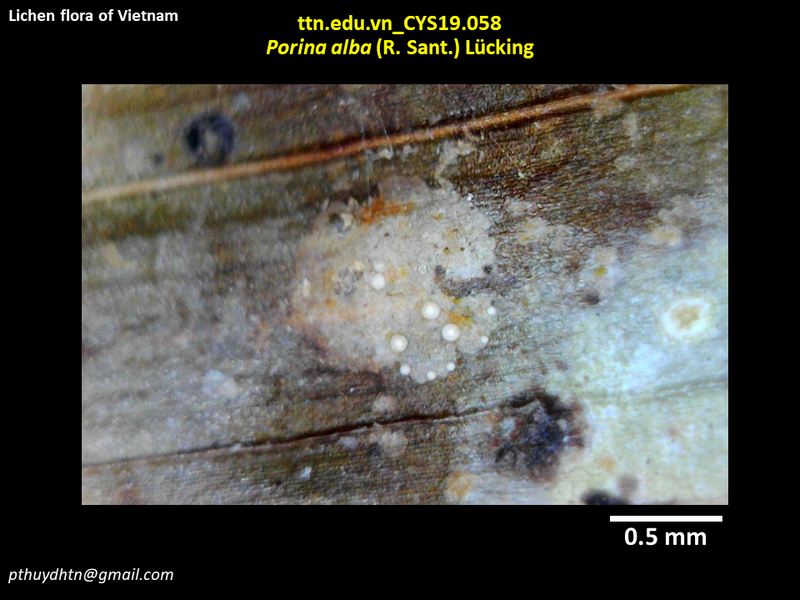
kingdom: Fungi
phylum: Ascomycota
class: Lecanoromycetes
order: Pertusariales
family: Pertusariaceae
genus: Porina
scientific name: Porina alba
